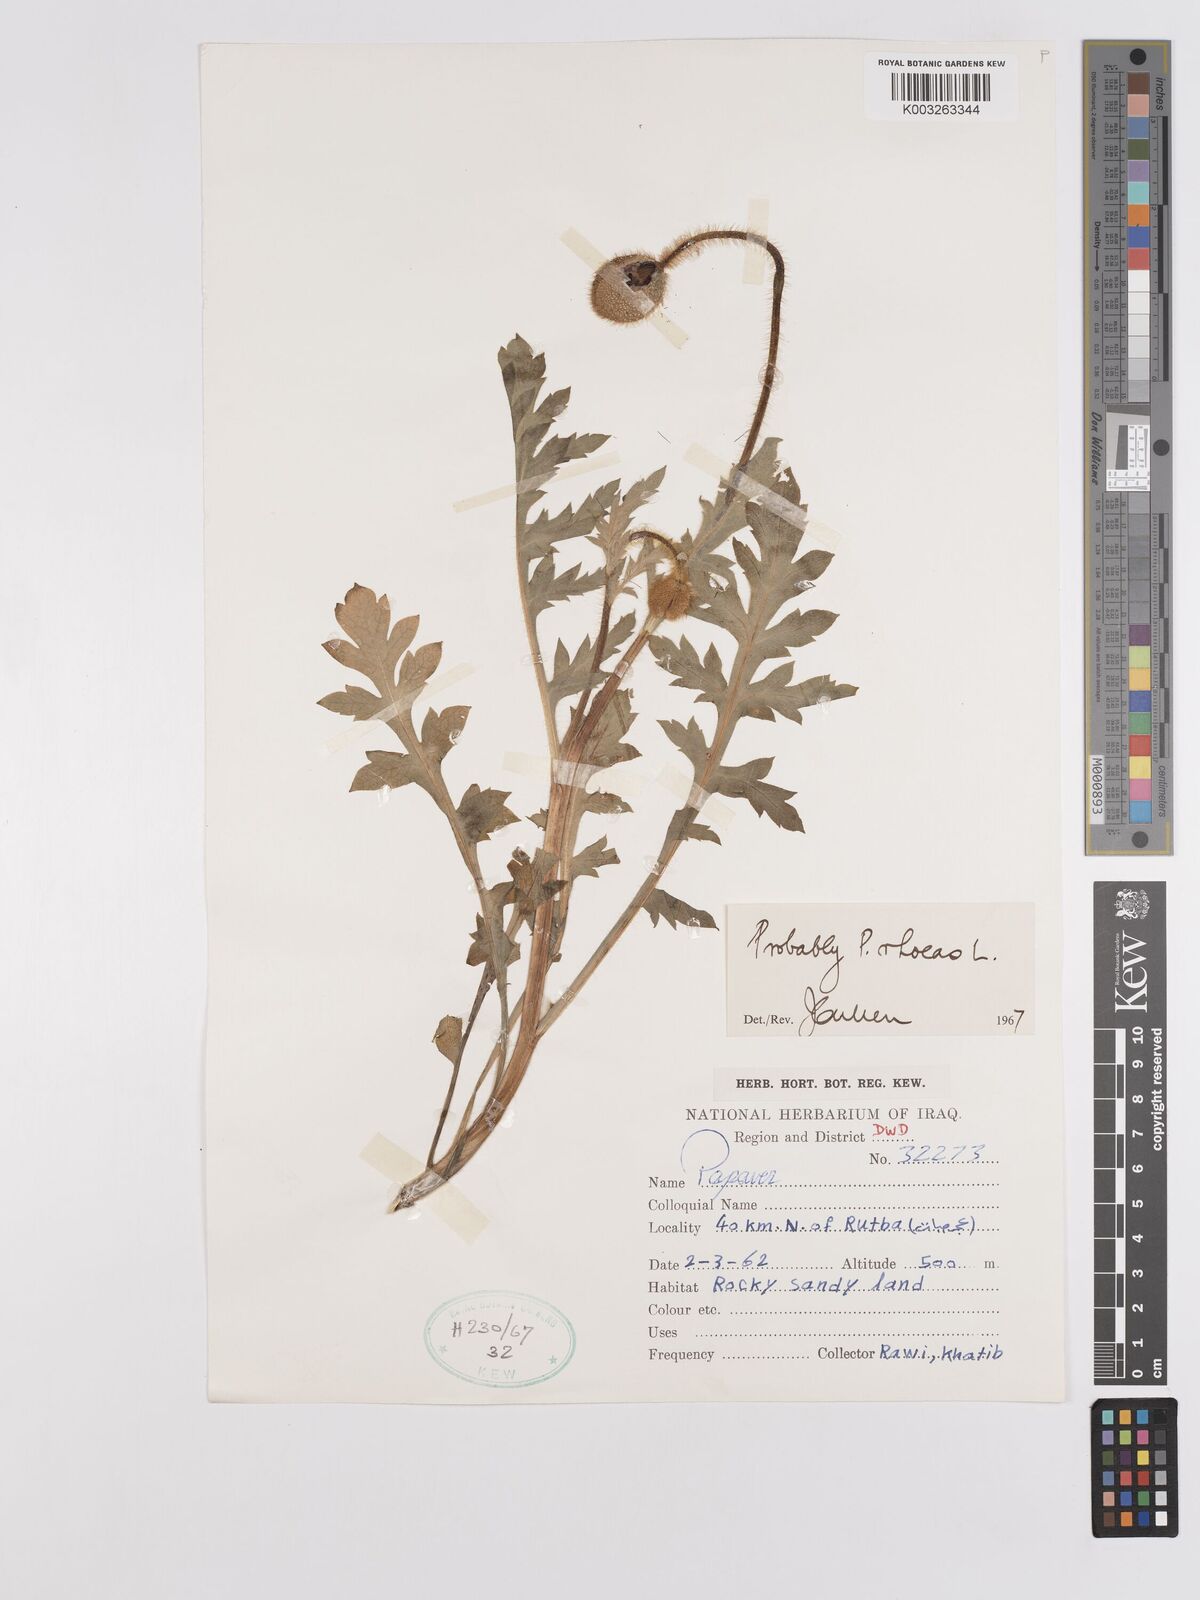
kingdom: Plantae
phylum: Tracheophyta
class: Magnoliopsida
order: Ranunculales
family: Papaveraceae
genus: Papaver
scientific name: Papaver rhoeas
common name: Corn poppy
